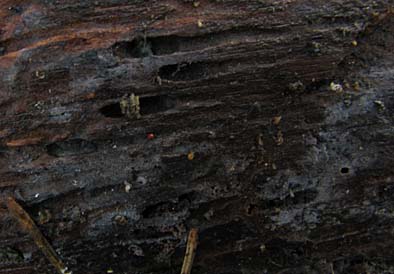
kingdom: Fungi
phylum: Basidiomycota
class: Agaricomycetes
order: Cantharellales
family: Tulasnellaceae
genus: Tulasnella
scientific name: Tulasnella tomaculum
